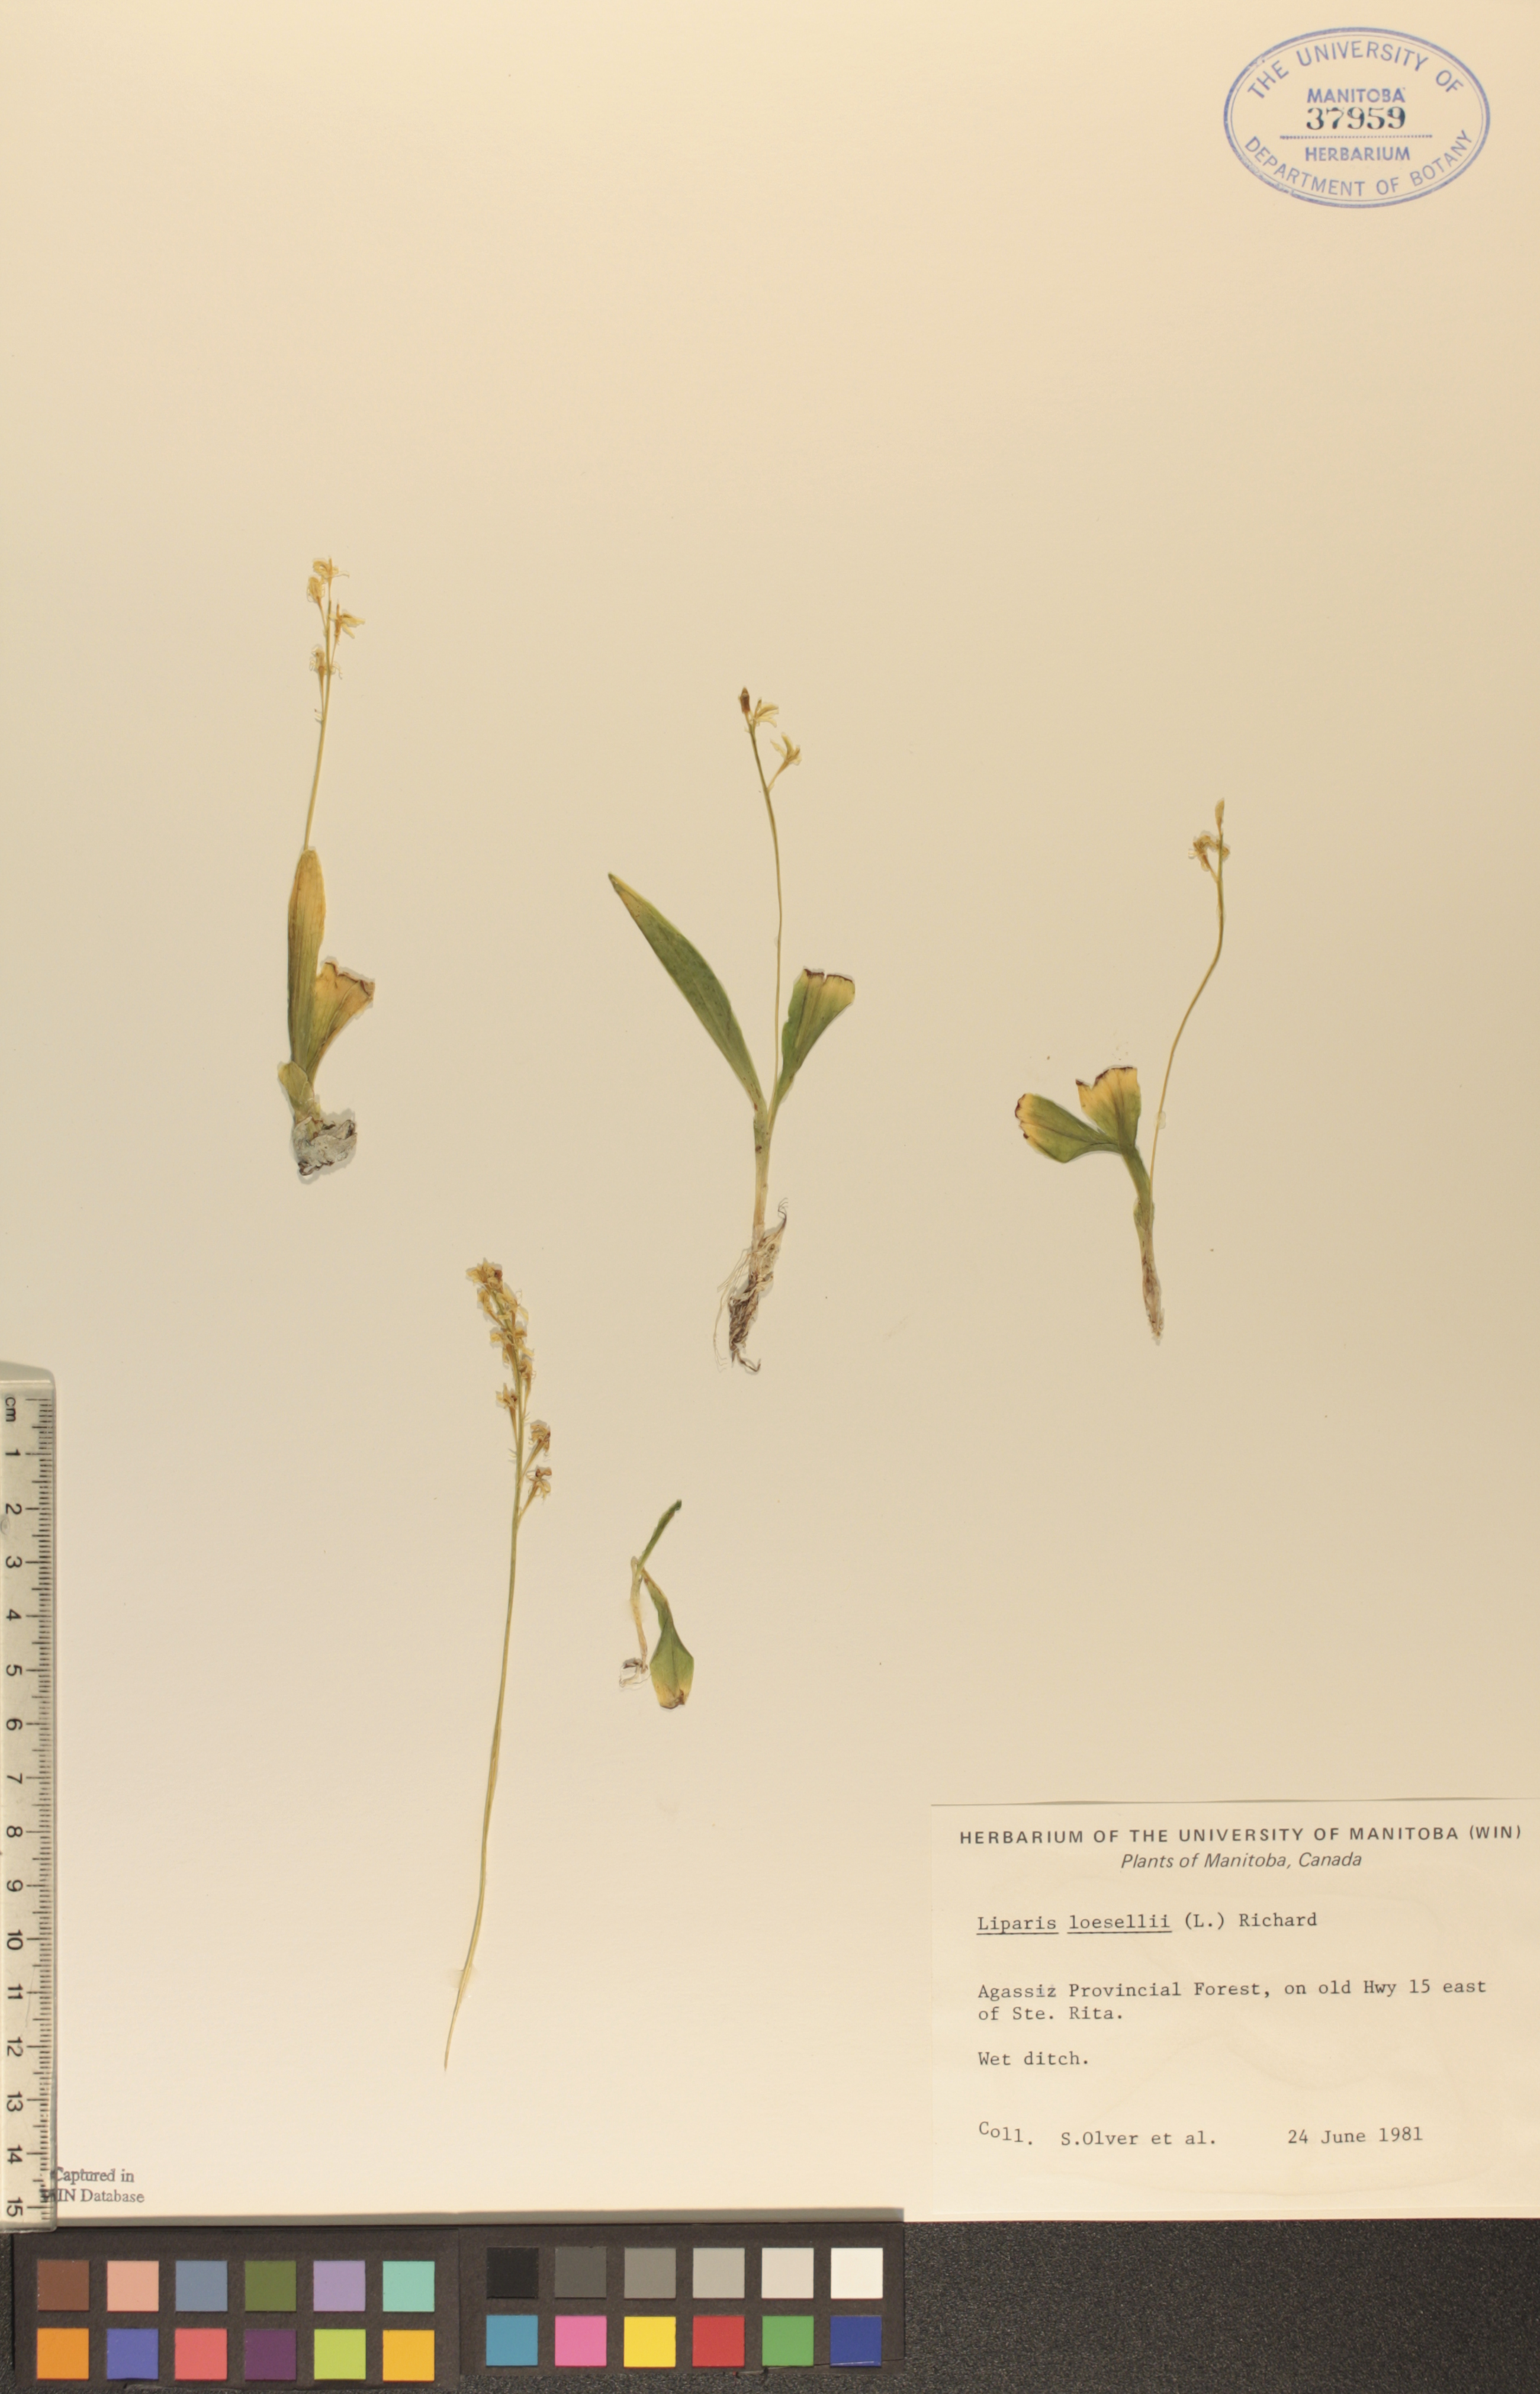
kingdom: Animalia
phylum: Arthropoda
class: Insecta
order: Coleoptera
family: Curculionidae
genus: Liparis
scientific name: Liparis loeselii
